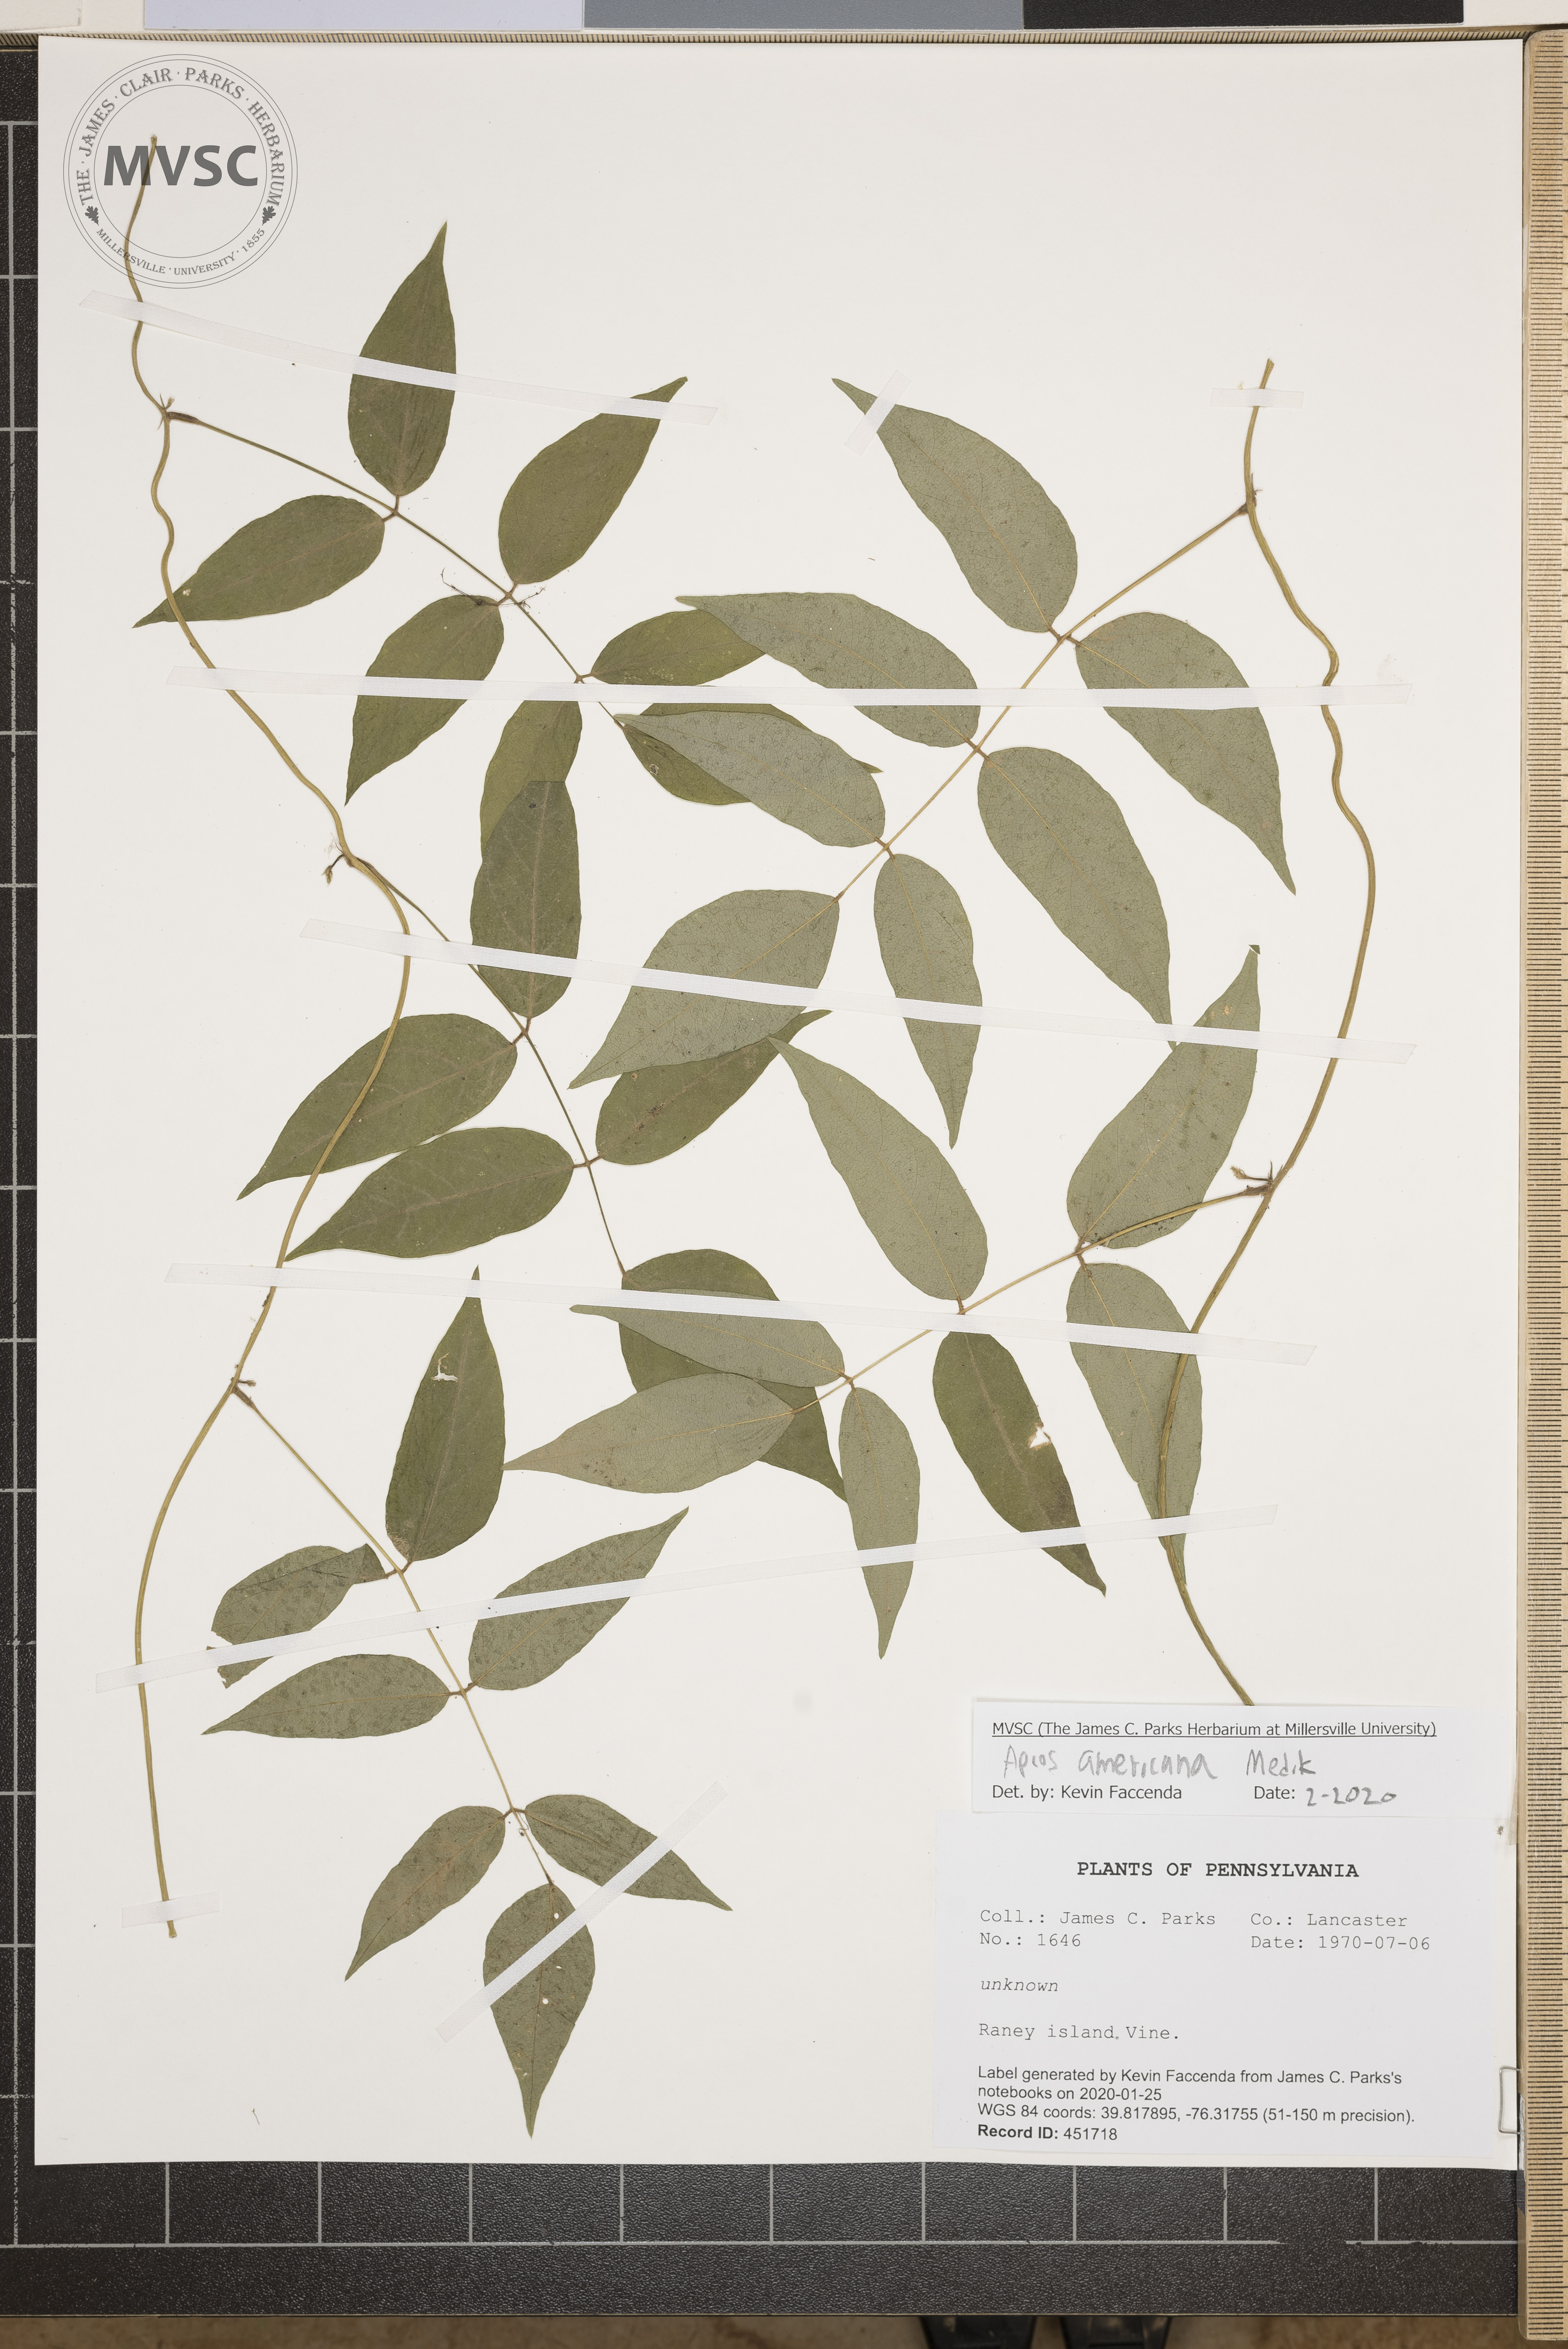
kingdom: Plantae
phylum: Tracheophyta
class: Magnoliopsida
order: Fabales
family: Fabaceae
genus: Apios
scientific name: Apios americana
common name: American potato-bean
